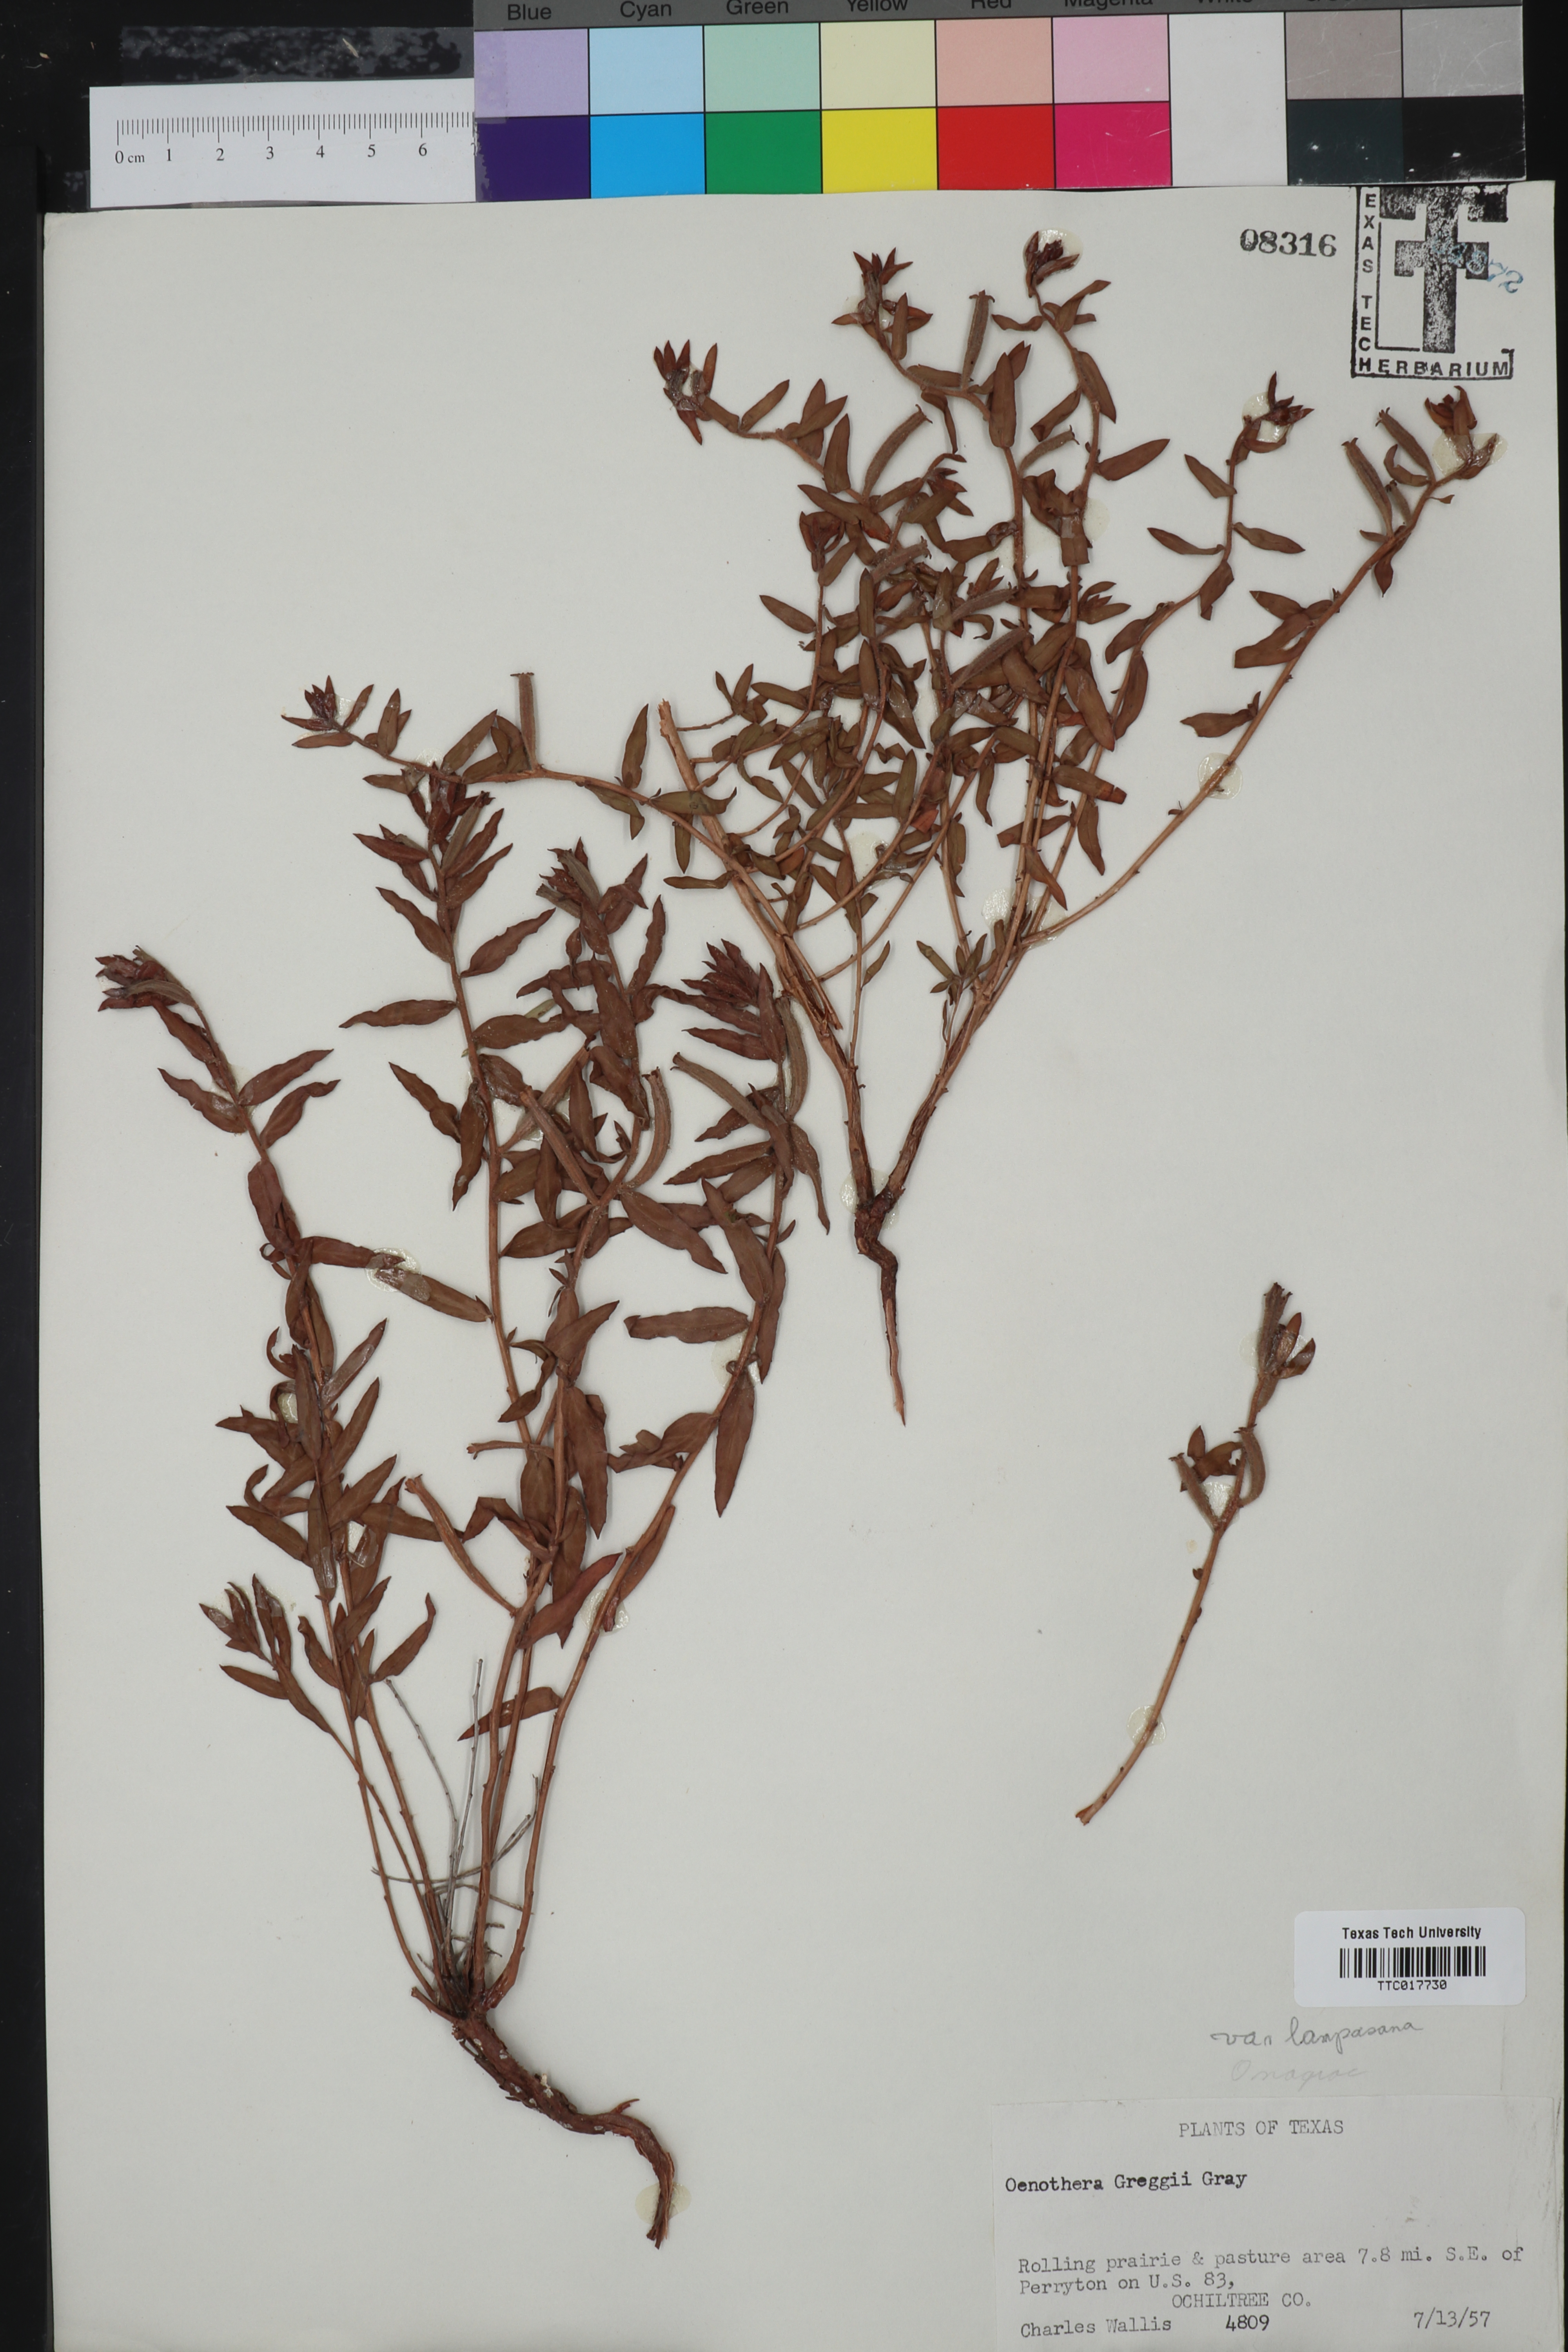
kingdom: Plantae
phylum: Tracheophyta
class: Magnoliopsida
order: Myrtales
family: Onagraceae
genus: Oenothera
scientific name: Oenothera hartwegii
